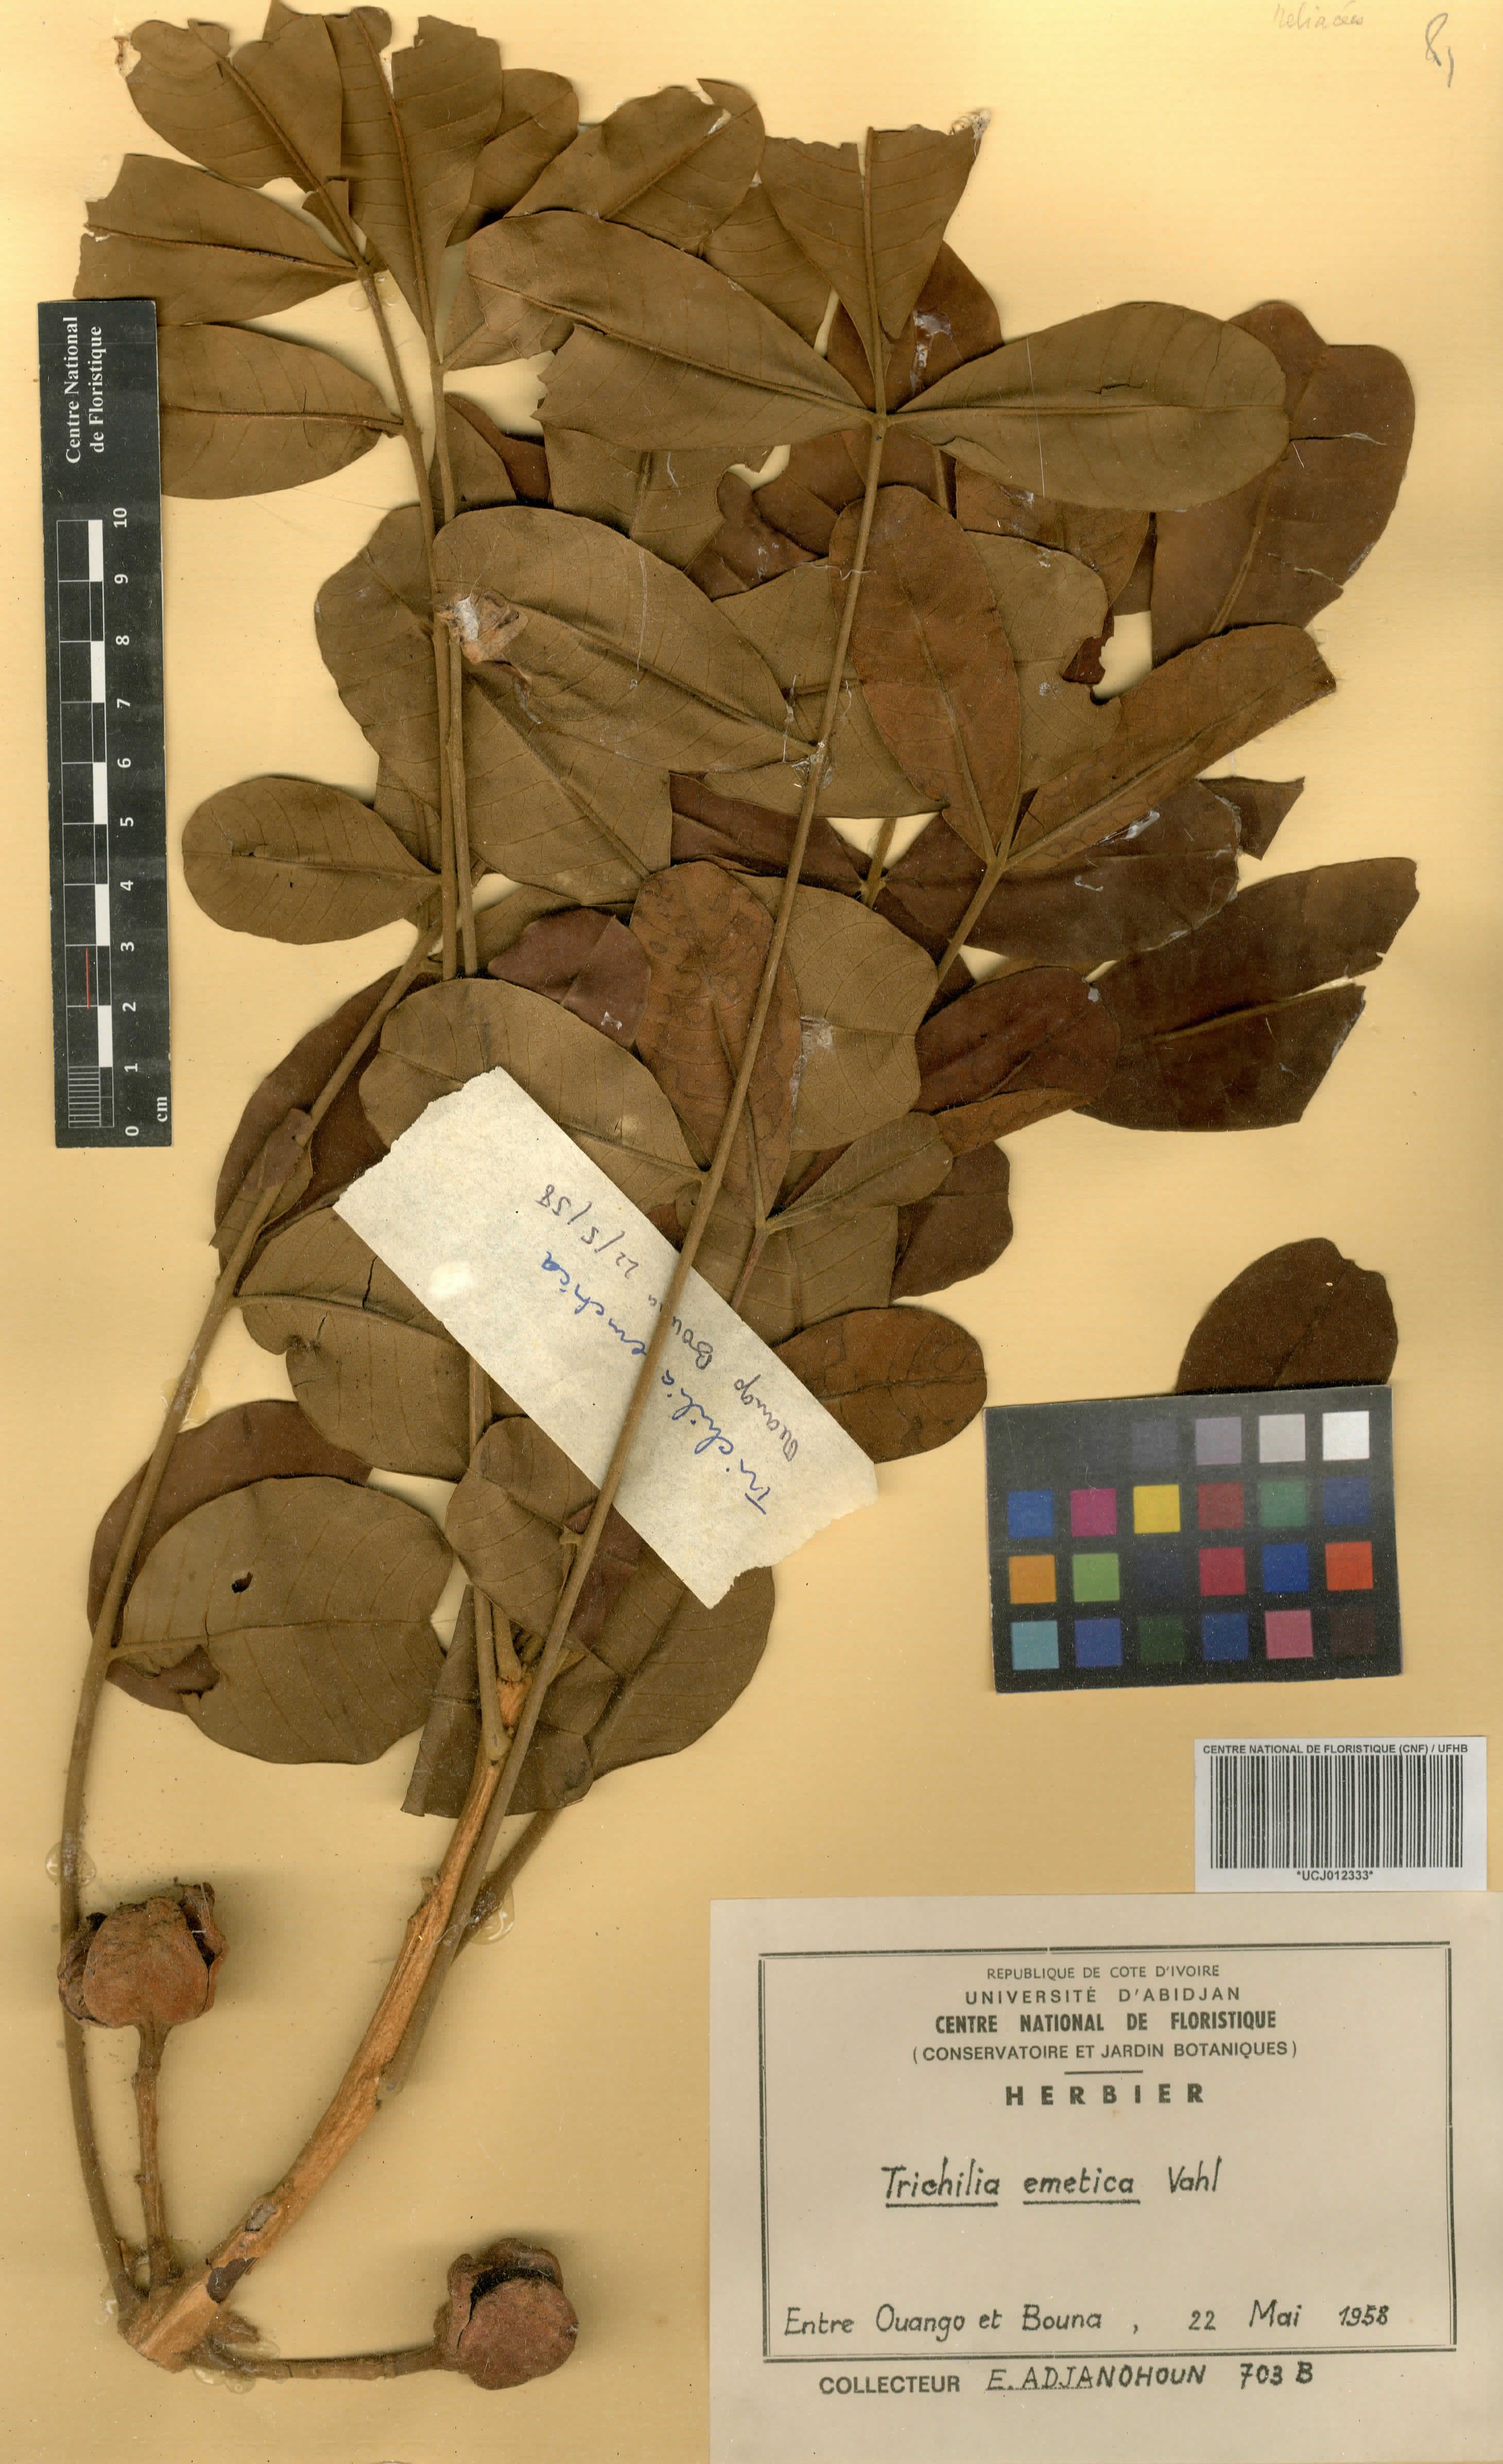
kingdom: Plantae
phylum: Tracheophyta
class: Magnoliopsida
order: Sapindales
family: Meliaceae
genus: Trichilia
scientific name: Trichilia emetica
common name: Christmas-bells
